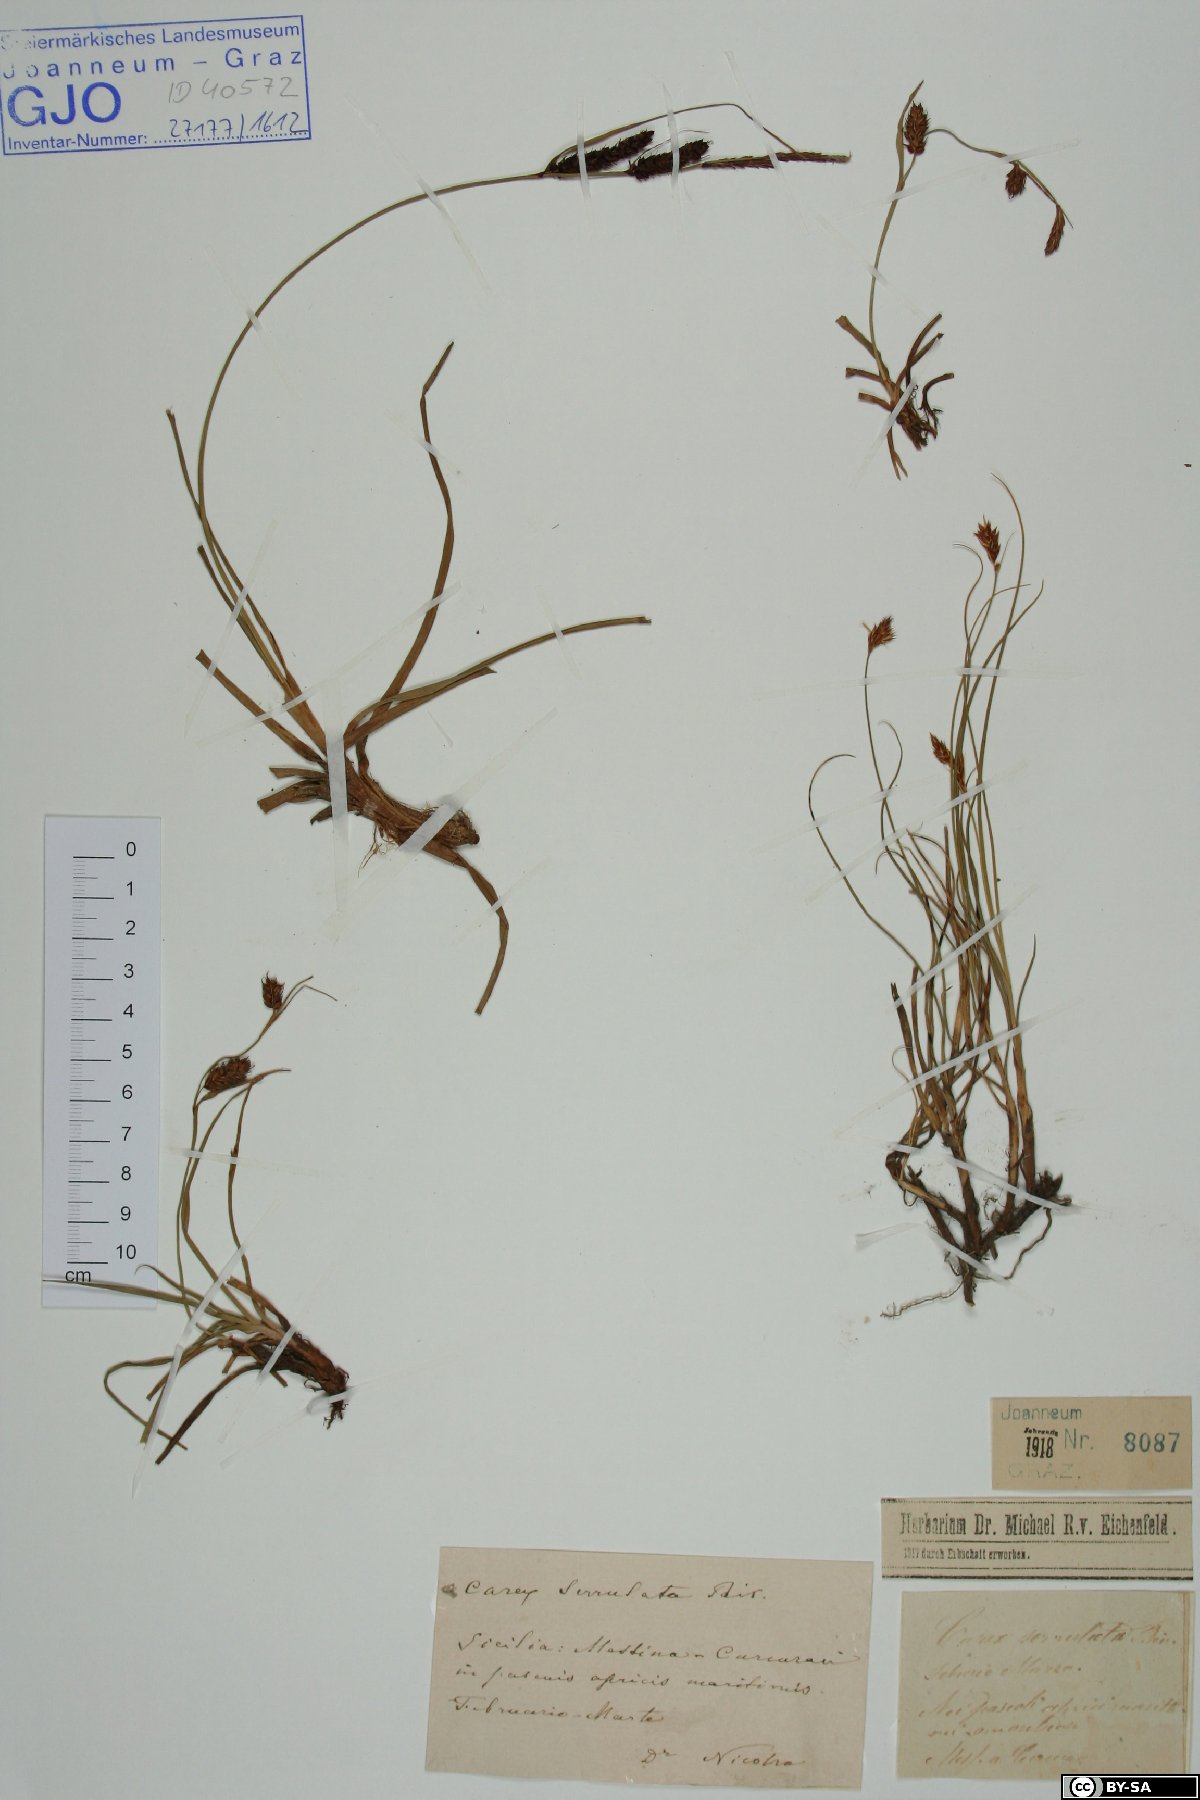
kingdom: Plantae
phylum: Tracheophyta
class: Liliopsida
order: Poales
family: Cyperaceae
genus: Carex
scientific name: Carex flacca
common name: Glaucous sedge
